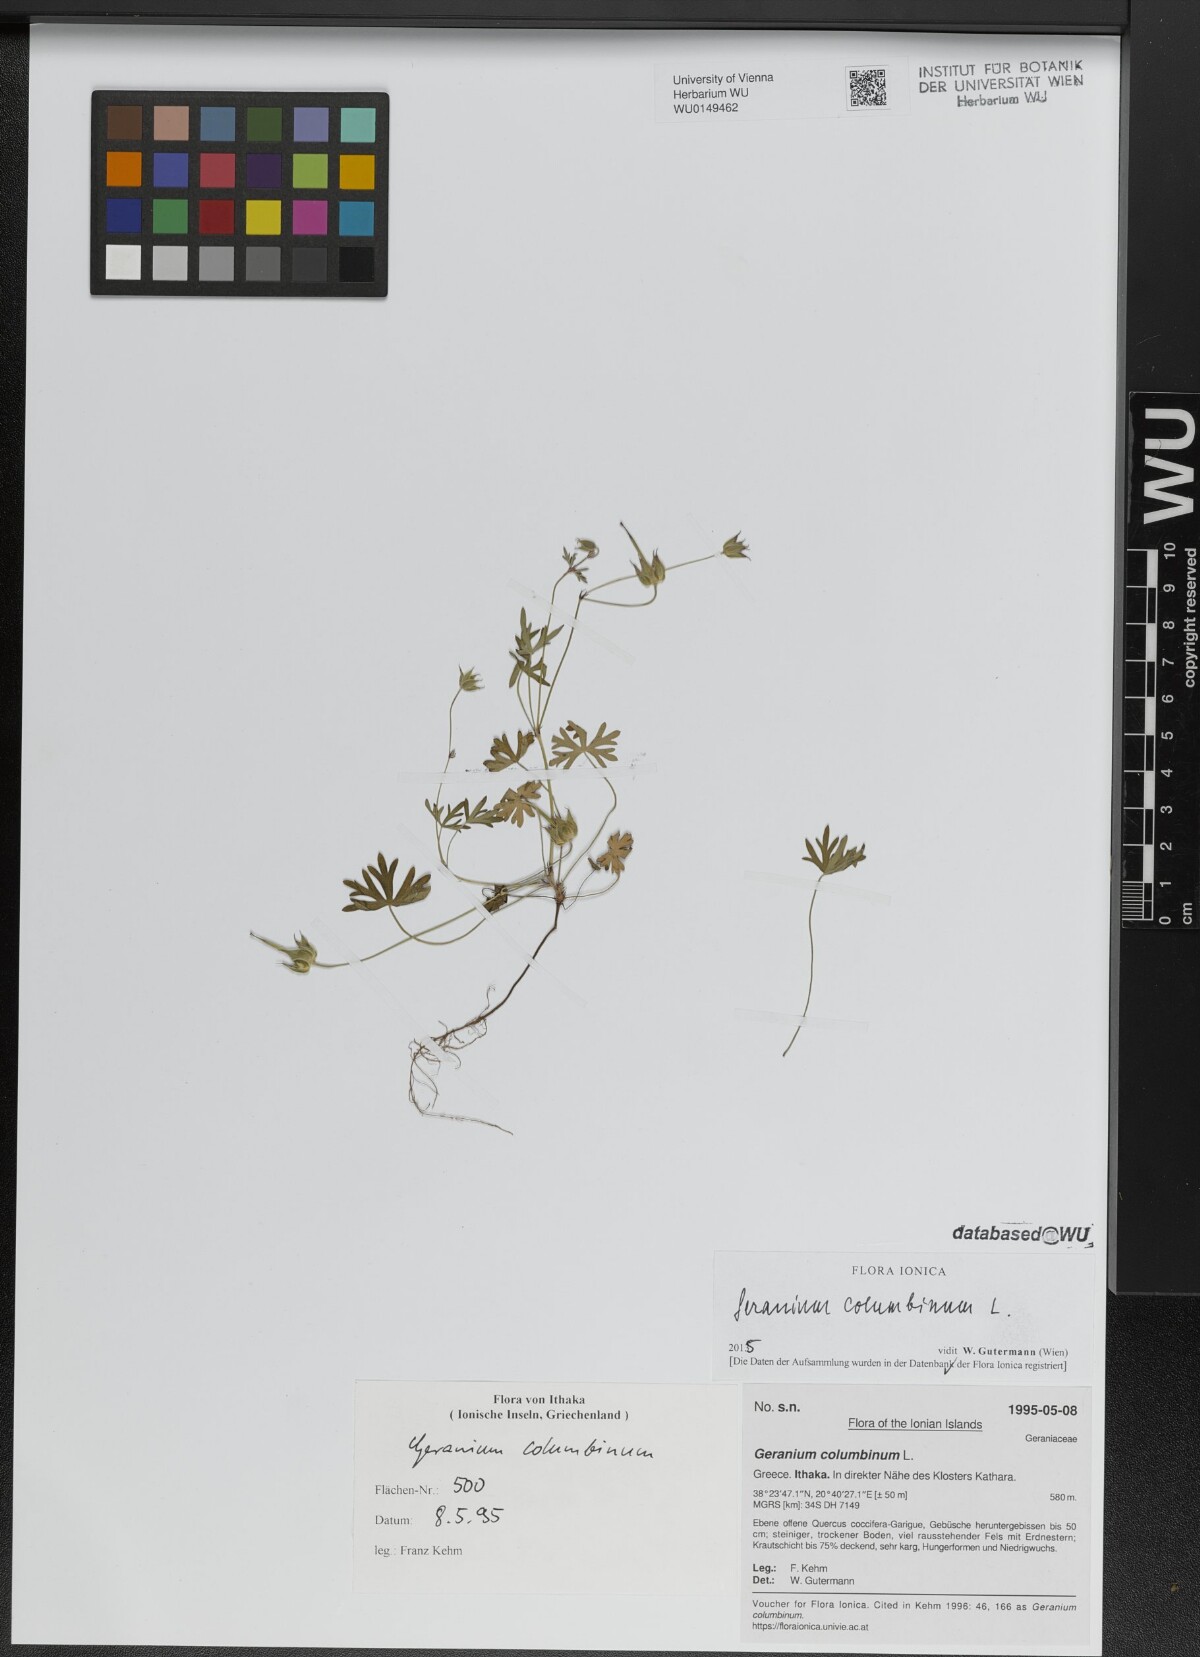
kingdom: Plantae
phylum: Tracheophyta
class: Magnoliopsida
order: Geraniales
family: Geraniaceae
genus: Geranium
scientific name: Geranium columbinum
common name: Long-stalked crane's-bill
